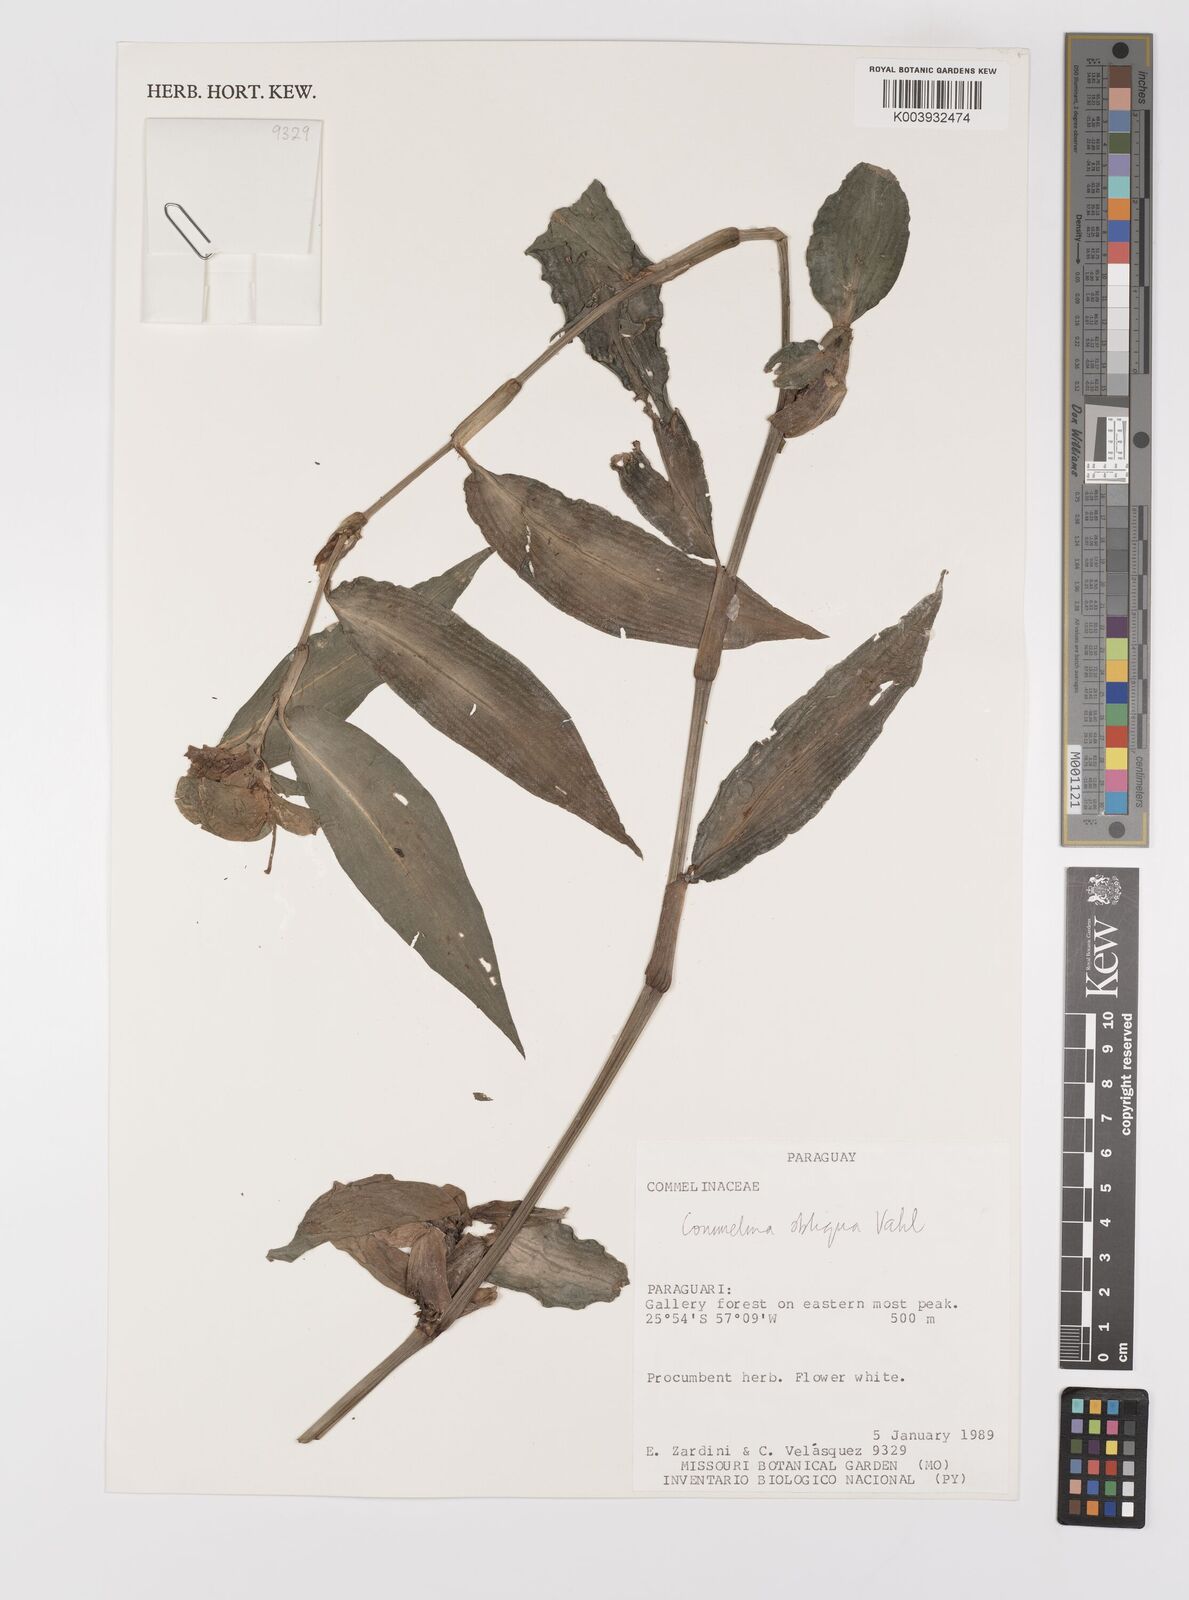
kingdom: Plantae
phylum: Tracheophyta
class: Liliopsida
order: Commelinales
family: Commelinaceae
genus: Commelina
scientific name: Commelina obliqua
